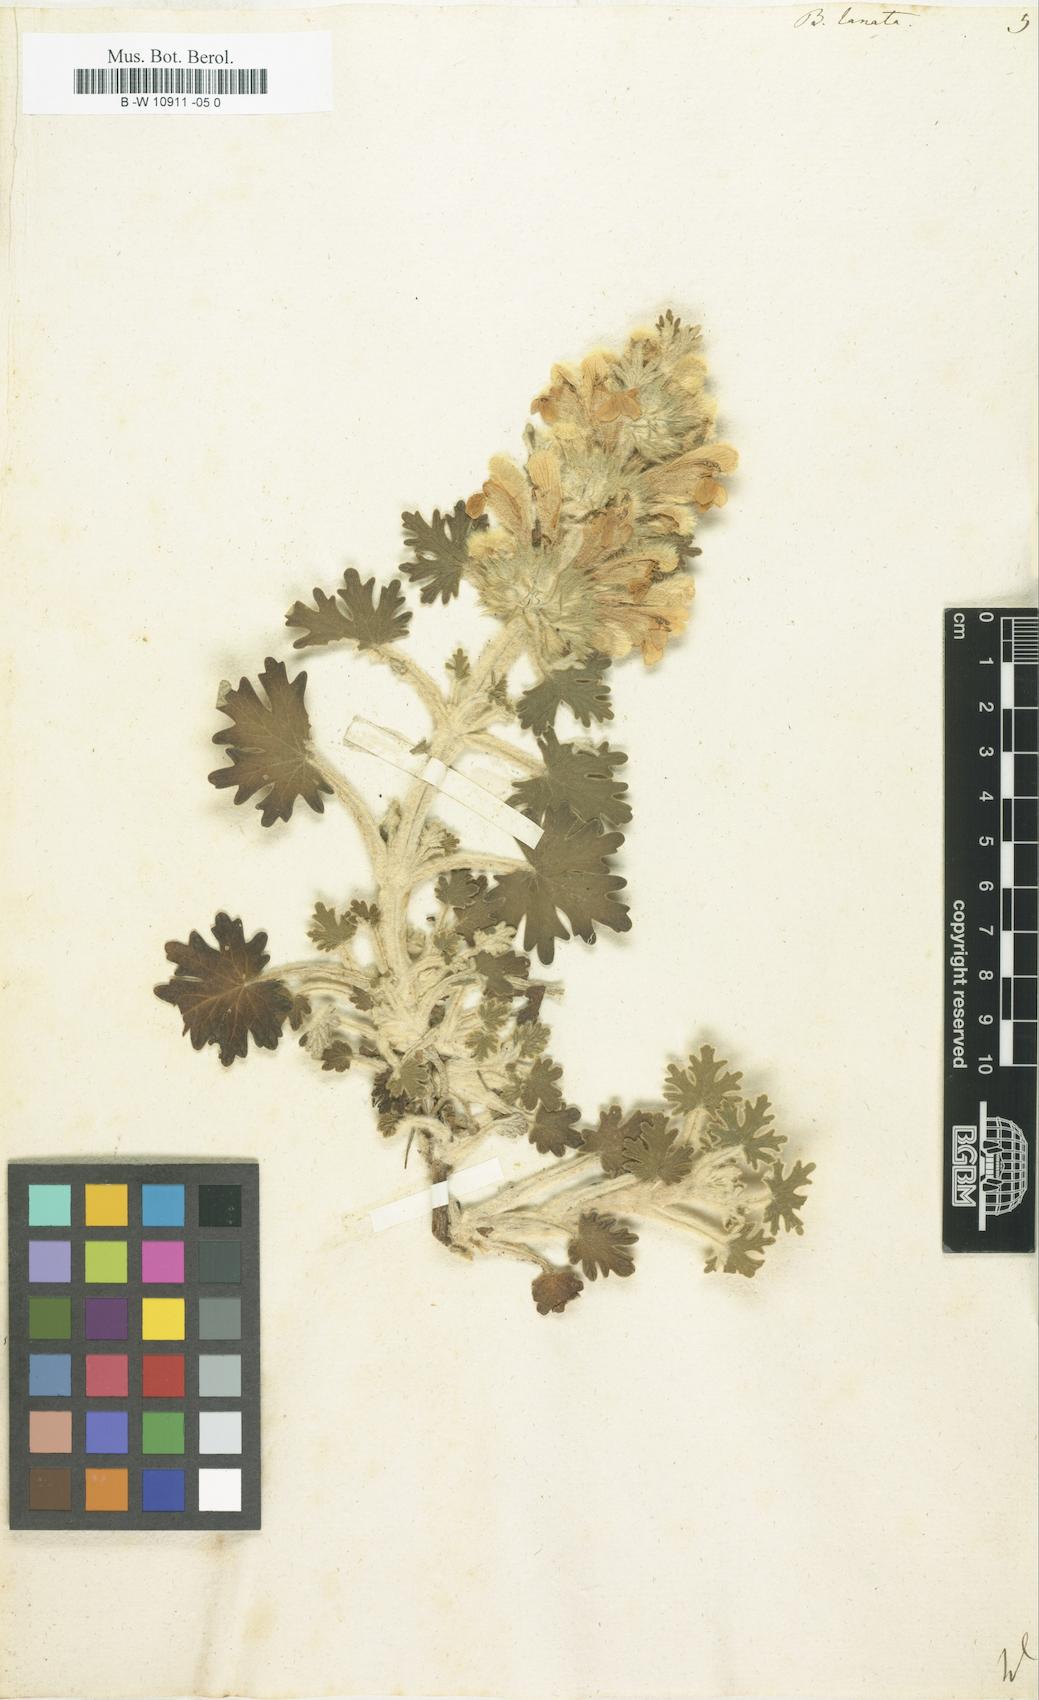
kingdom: Plantae
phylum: Tracheophyta
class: Magnoliopsida
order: Lamiales
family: Lamiaceae
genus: Ballota
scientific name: Ballota lanata
